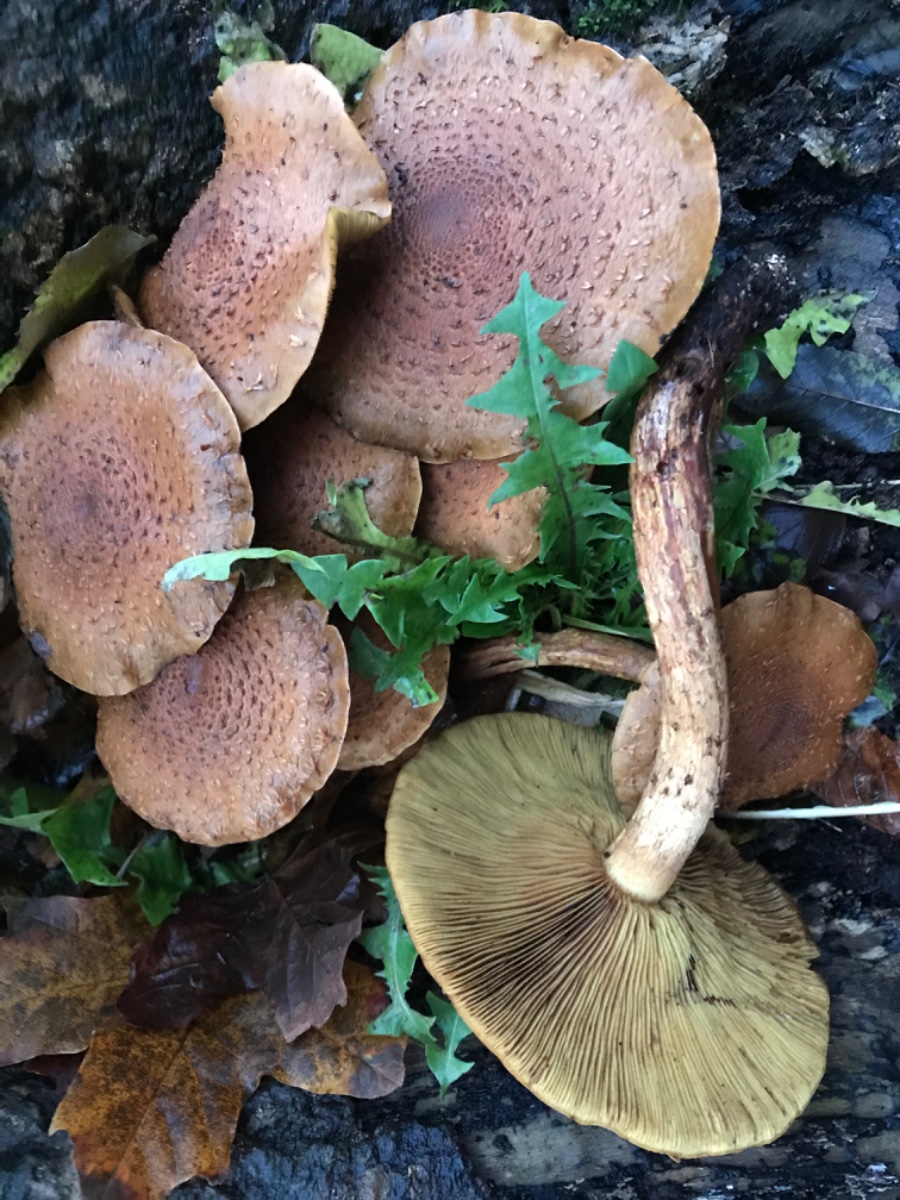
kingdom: Fungi
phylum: Basidiomycota
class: Agaricomycetes
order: Agaricales
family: Strophariaceae
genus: Pholiota
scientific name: Pholiota squarrosa
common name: krumskællet skælhat
